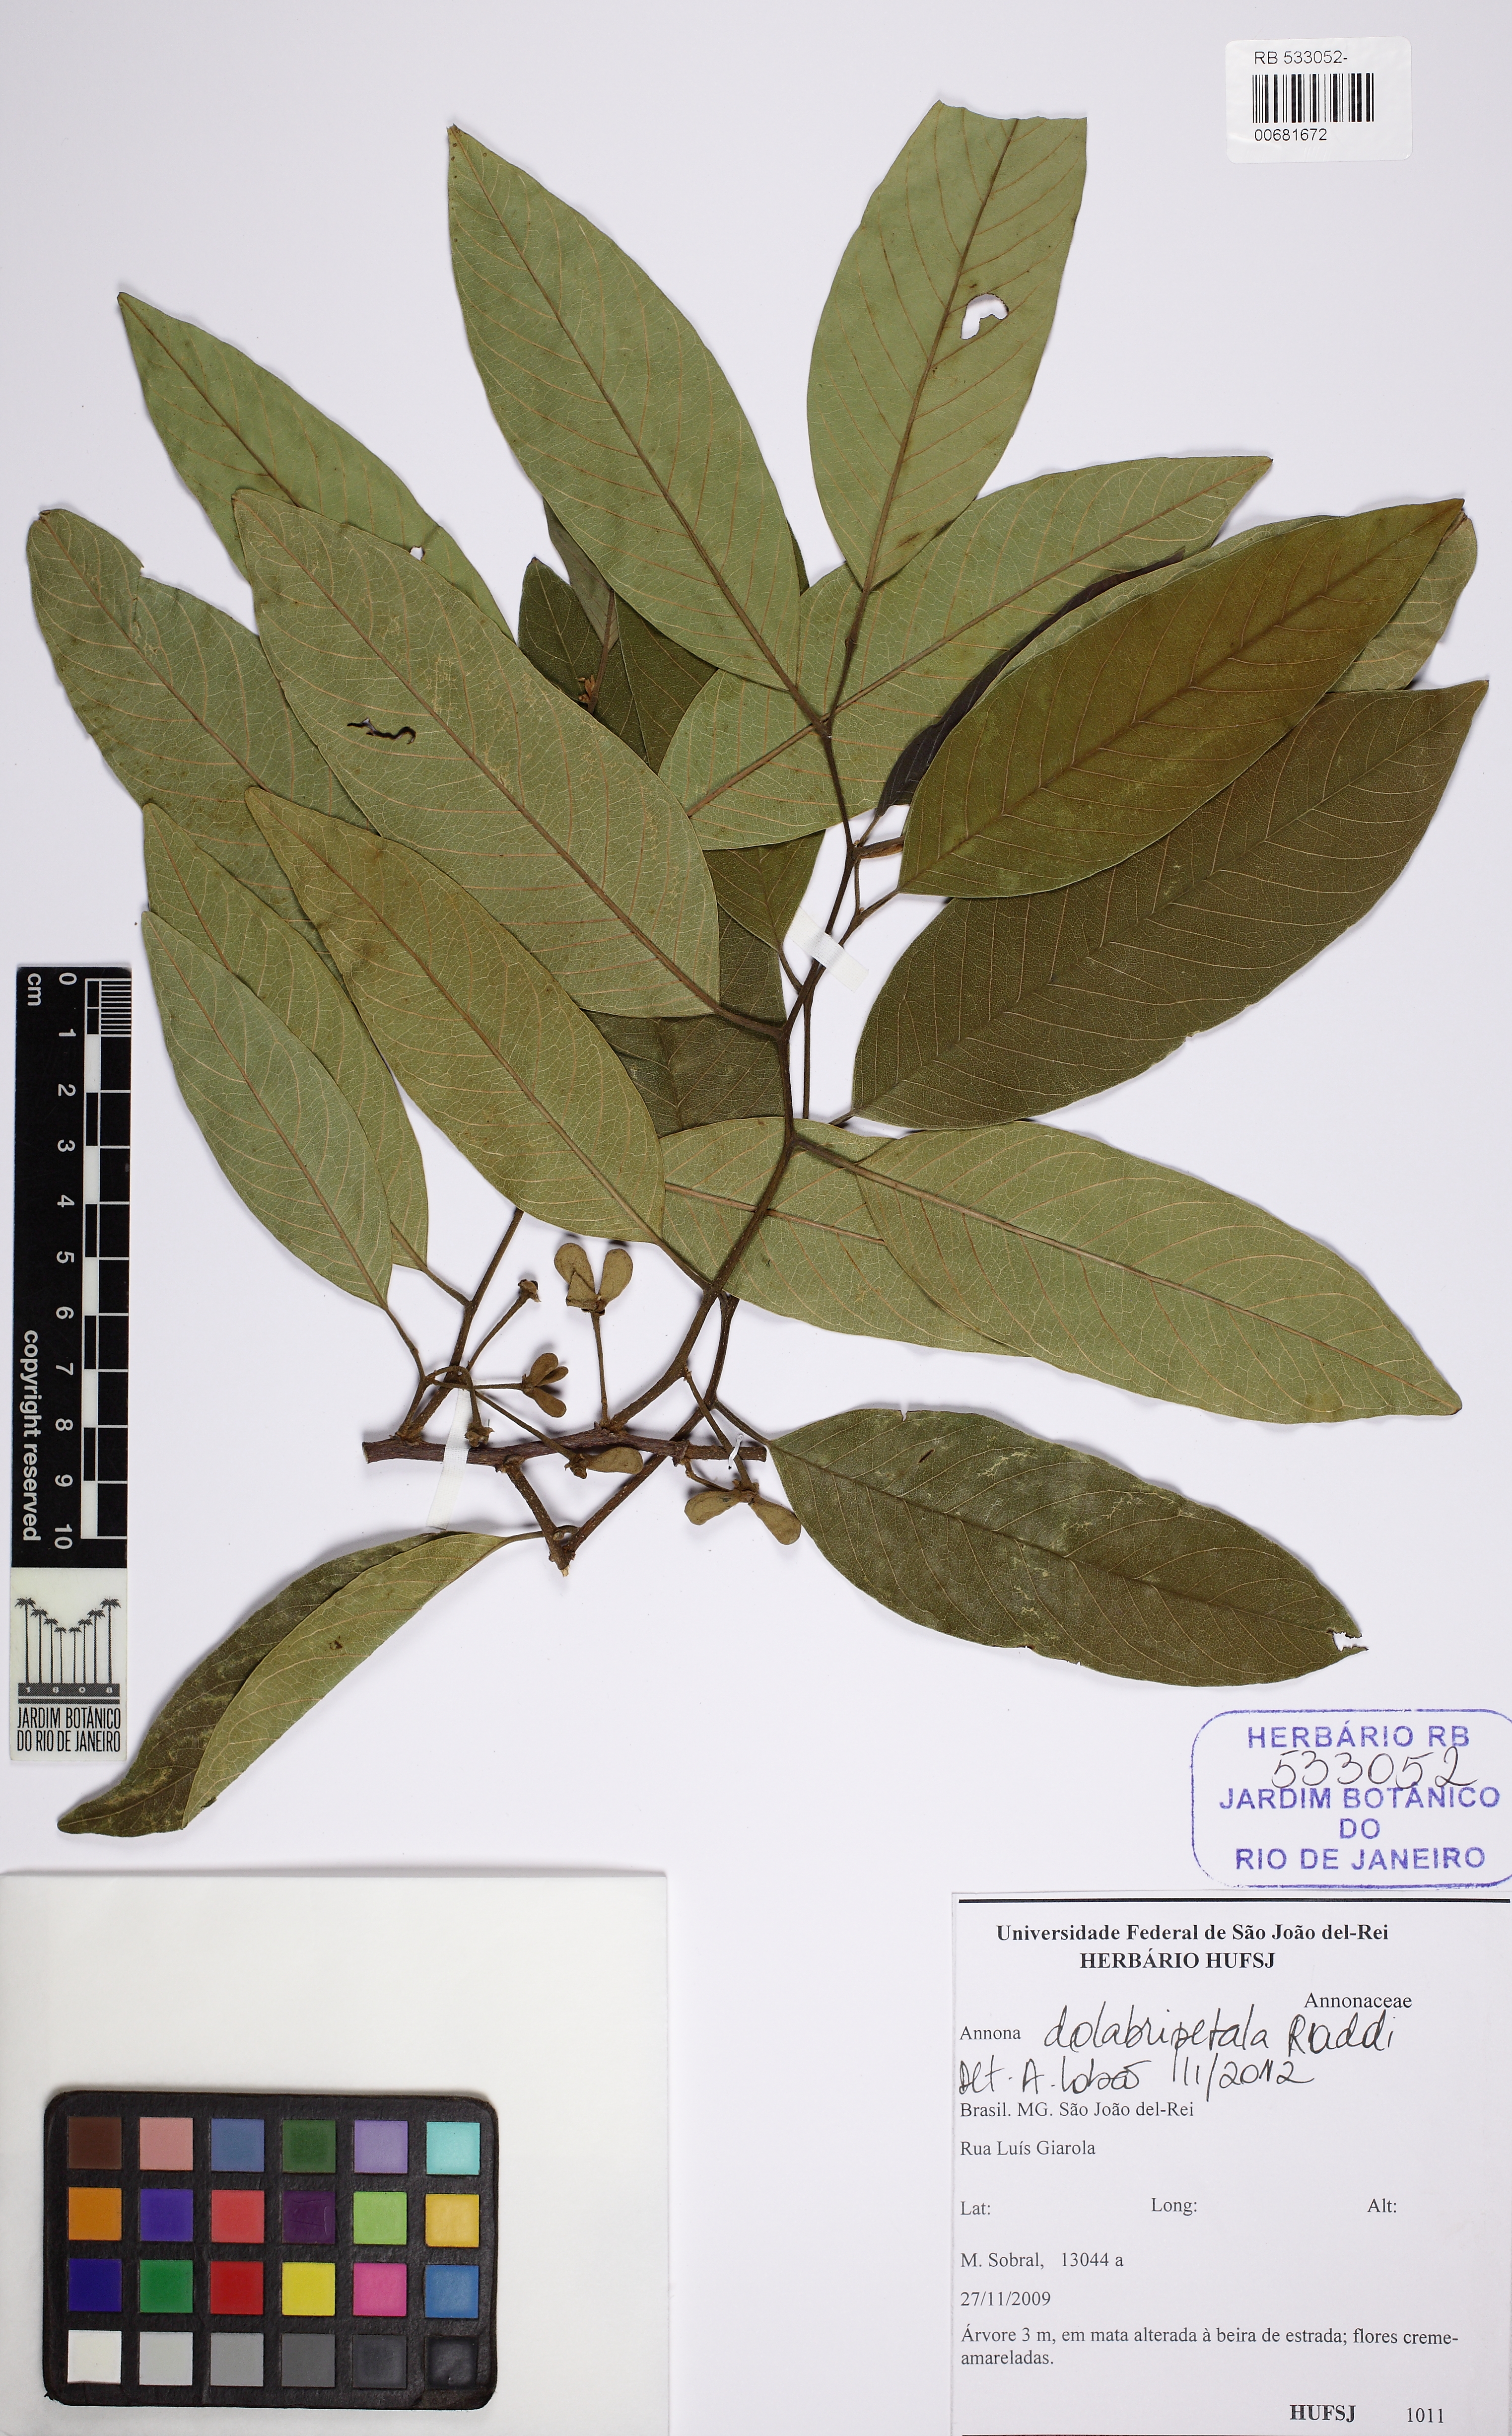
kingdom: Plantae
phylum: Tracheophyta
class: Magnoliopsida
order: Magnoliales
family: Annonaceae
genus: Annona
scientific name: Annona dolabripetala
